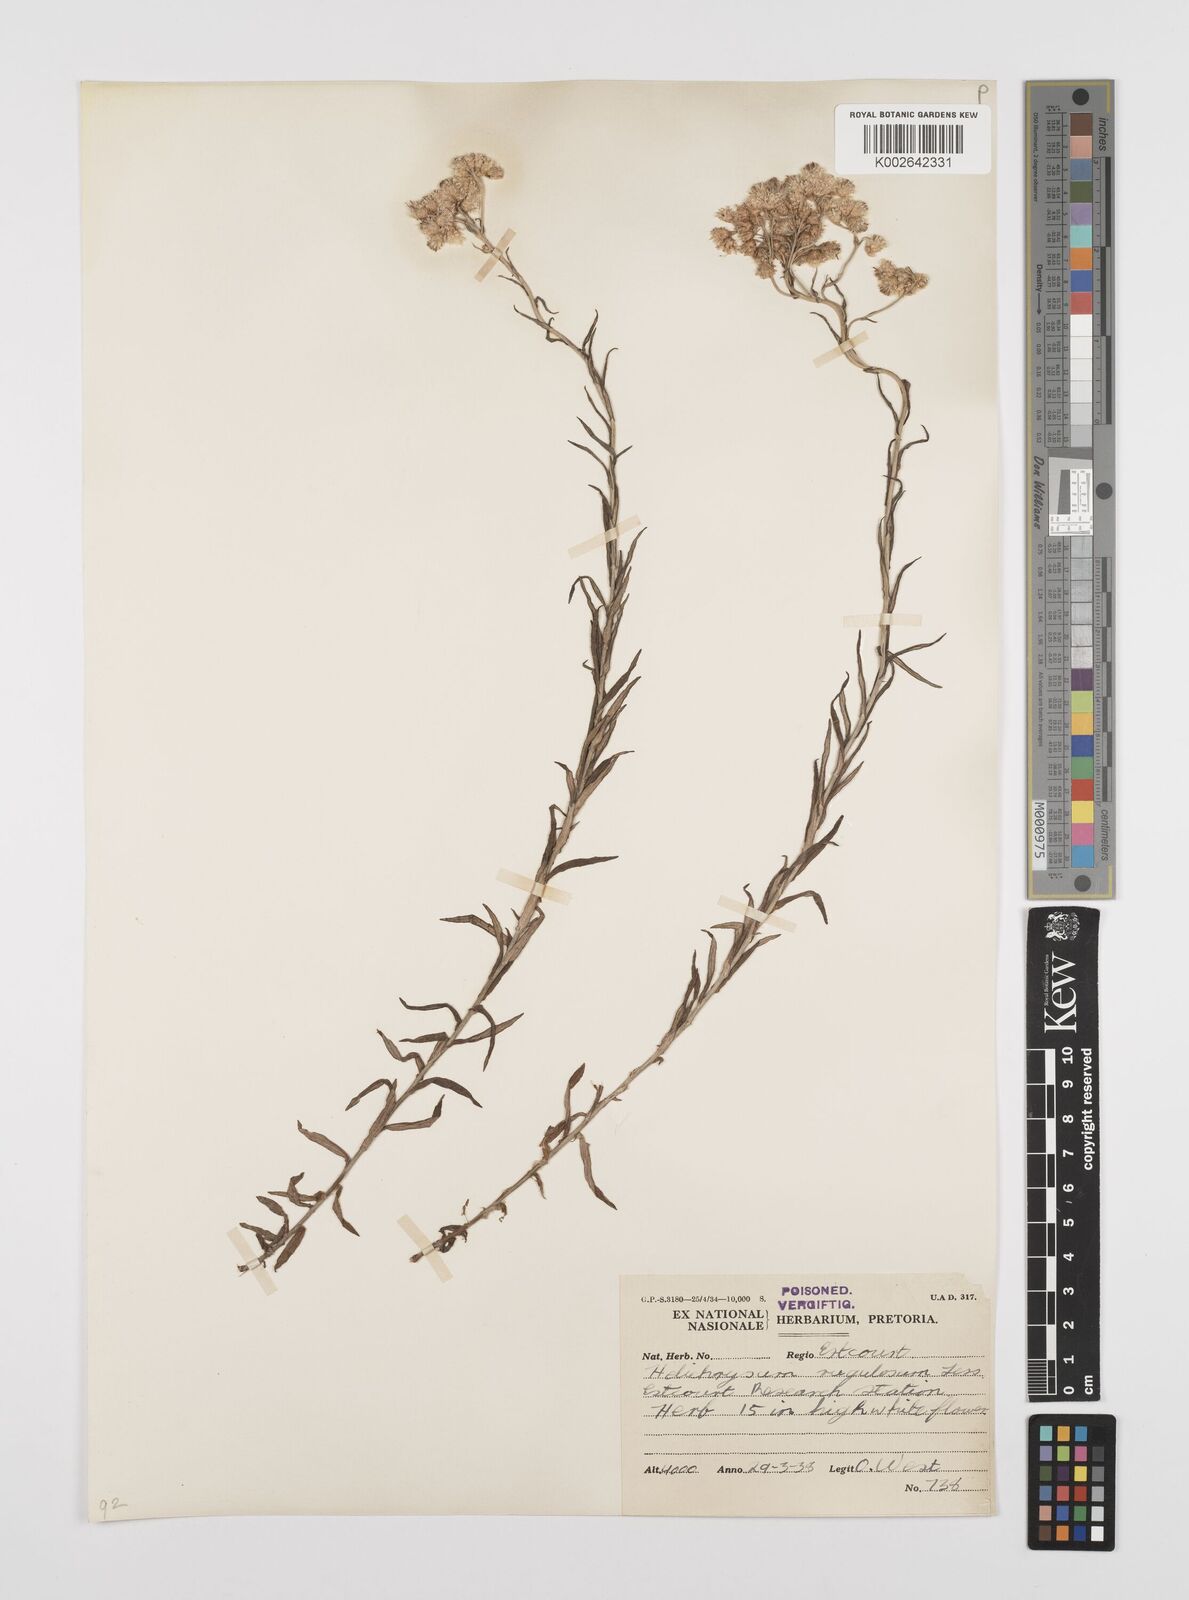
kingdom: Plantae
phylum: Tracheophyta
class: Magnoliopsida
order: Asterales
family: Asteraceae
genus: Helichrysum
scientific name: Helichrysum rugulosum
